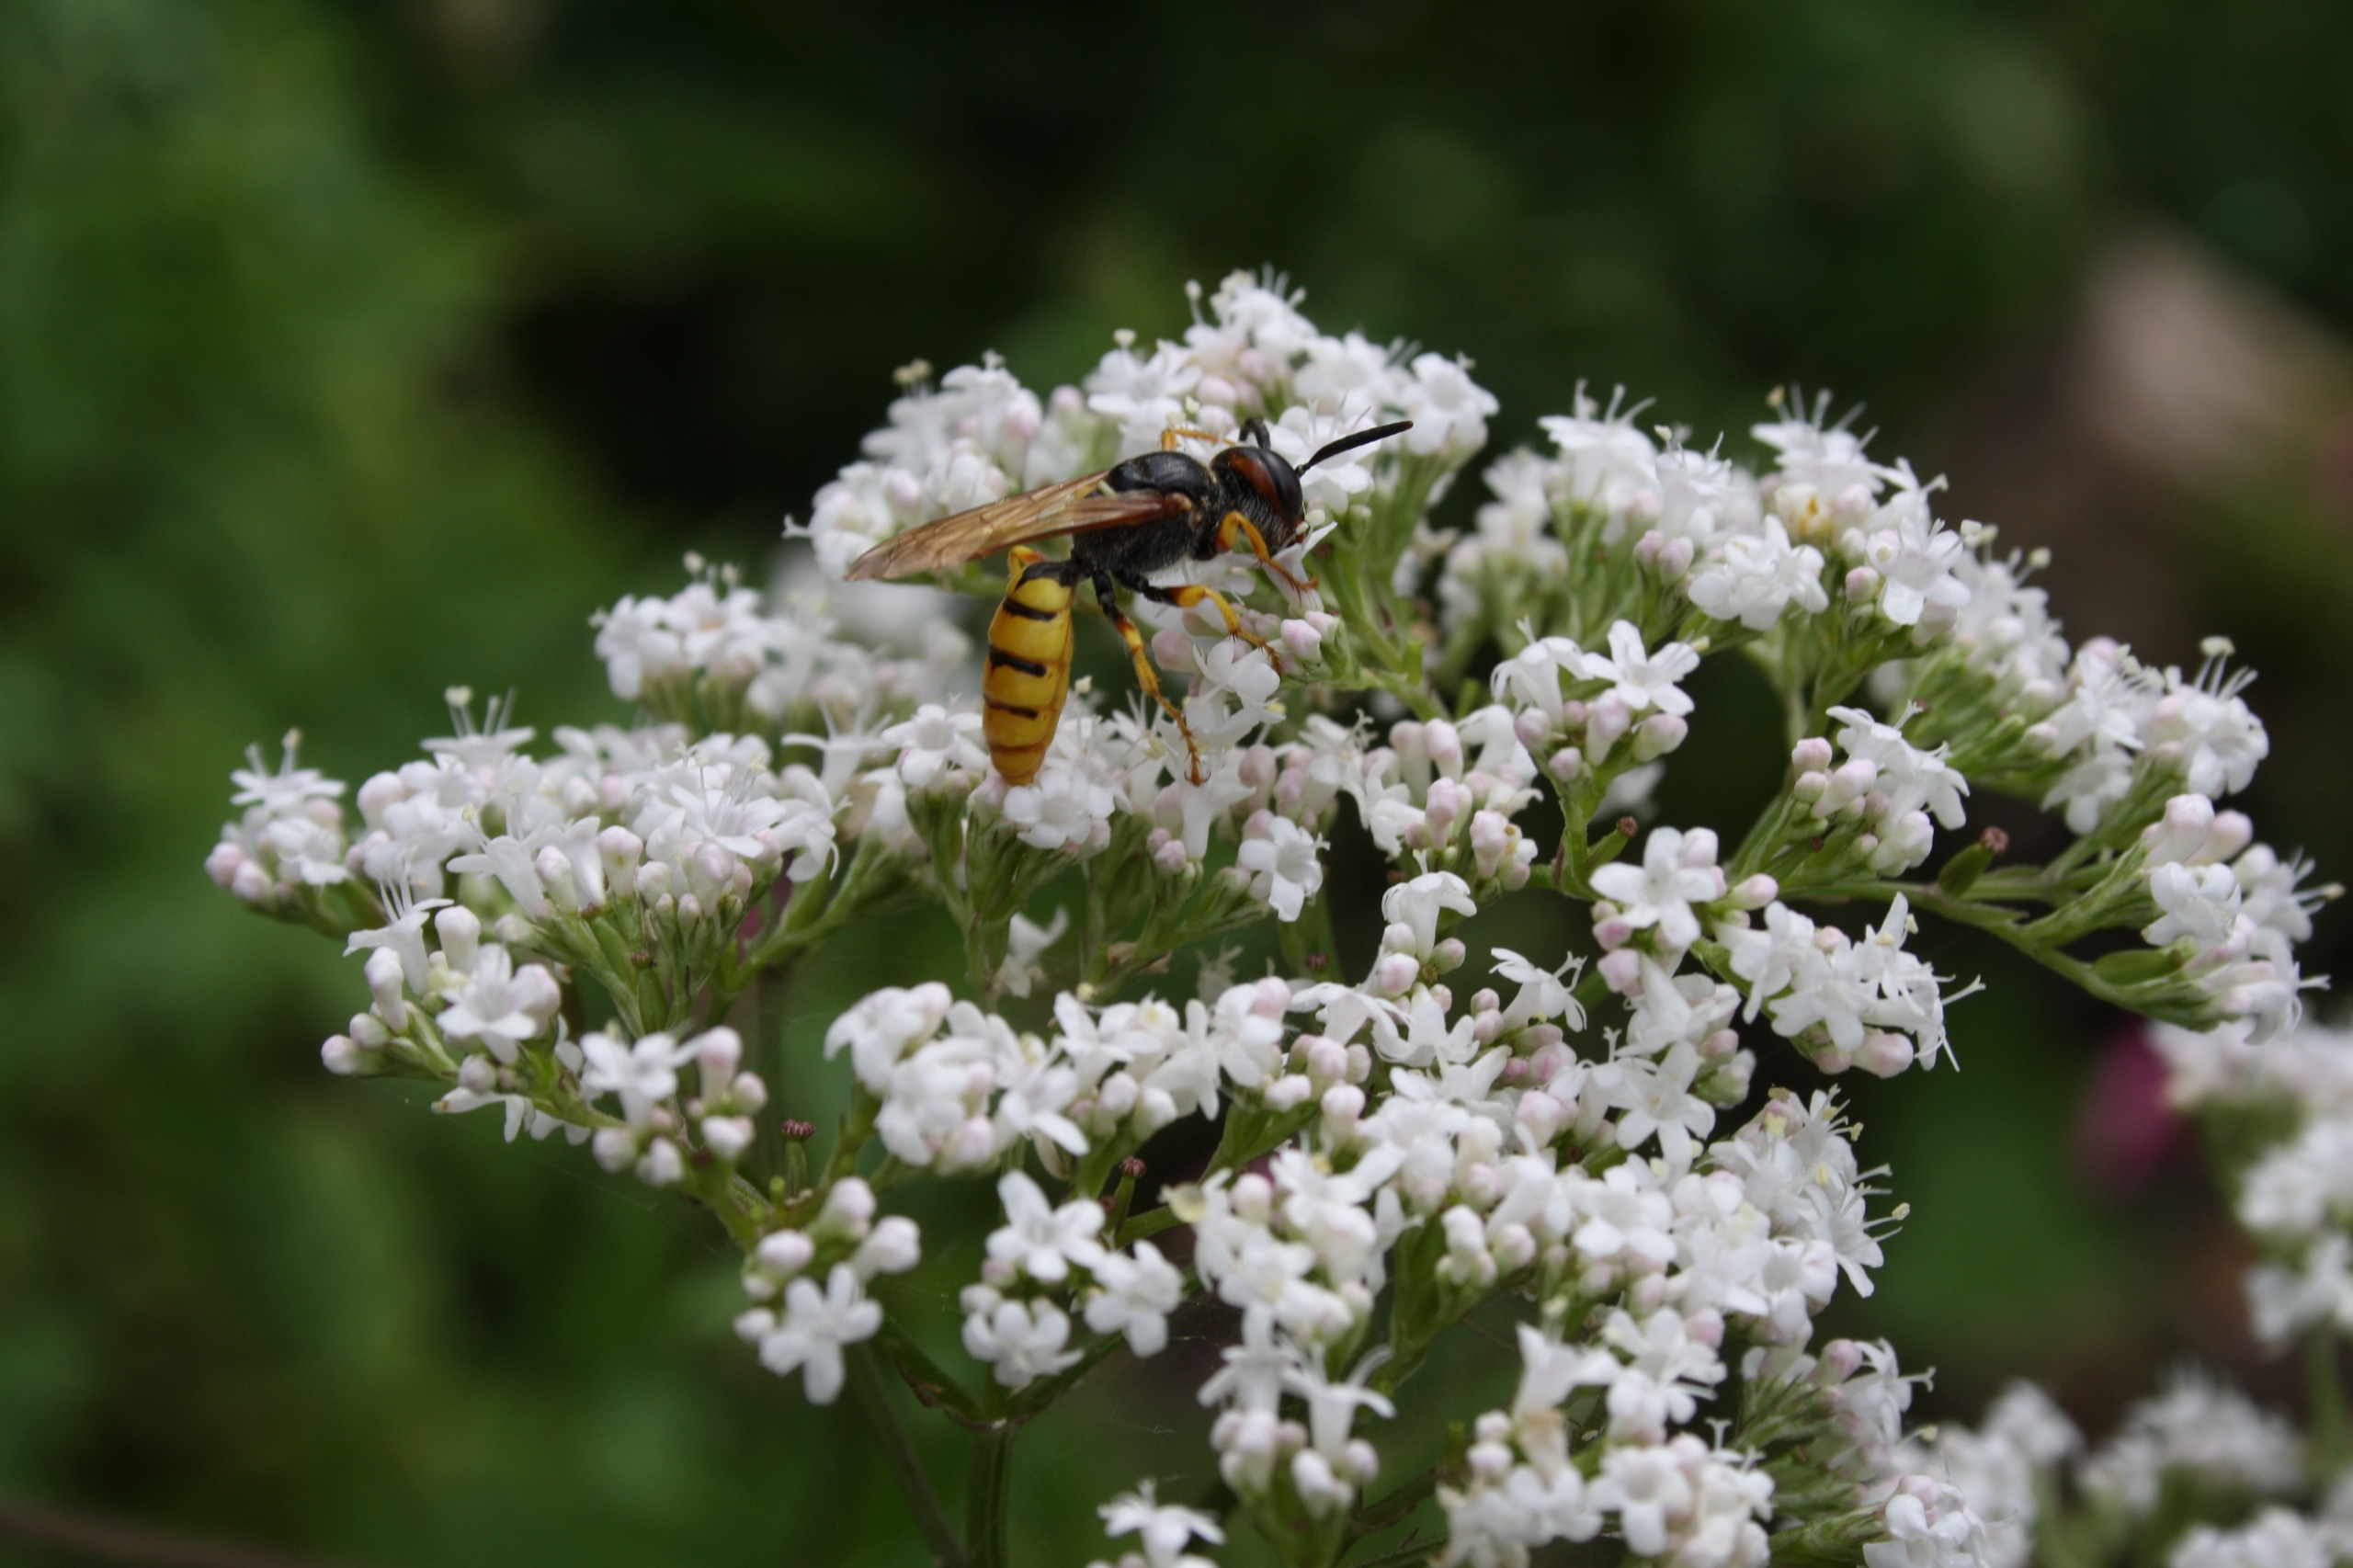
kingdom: Animalia
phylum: Arthropoda
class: Insecta
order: Hymenoptera
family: Crabronidae
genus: Philanthus
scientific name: Philanthus triangulum
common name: Biulv
